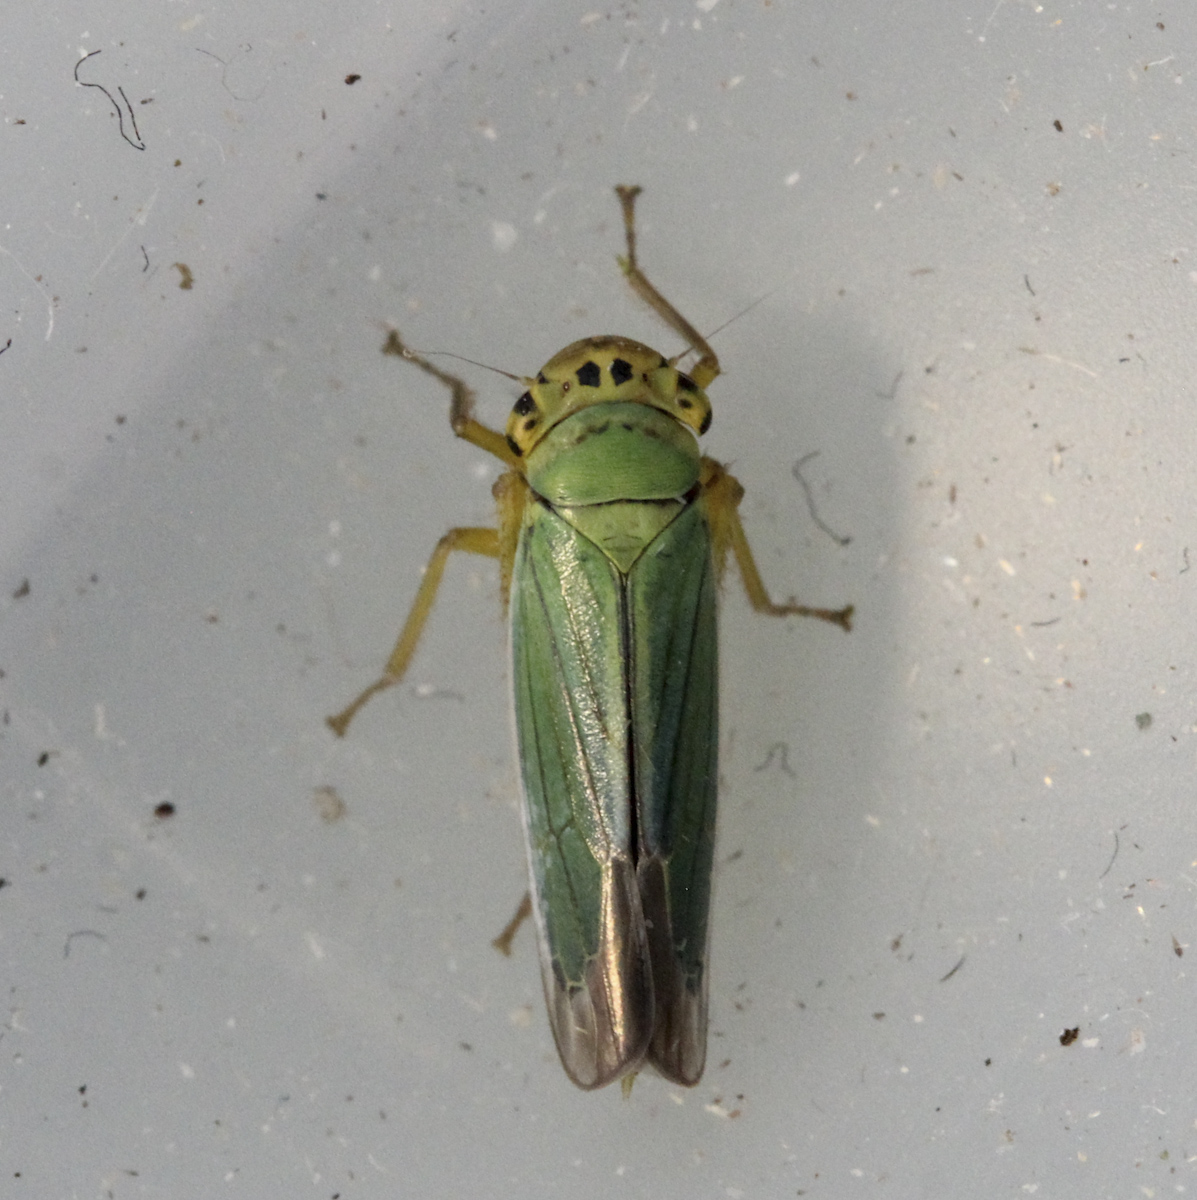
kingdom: Animalia
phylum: Arthropoda
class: Insecta
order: Hemiptera
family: Cicadellidae
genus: Cicadella
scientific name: Cicadella viridis
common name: Leafhopper
